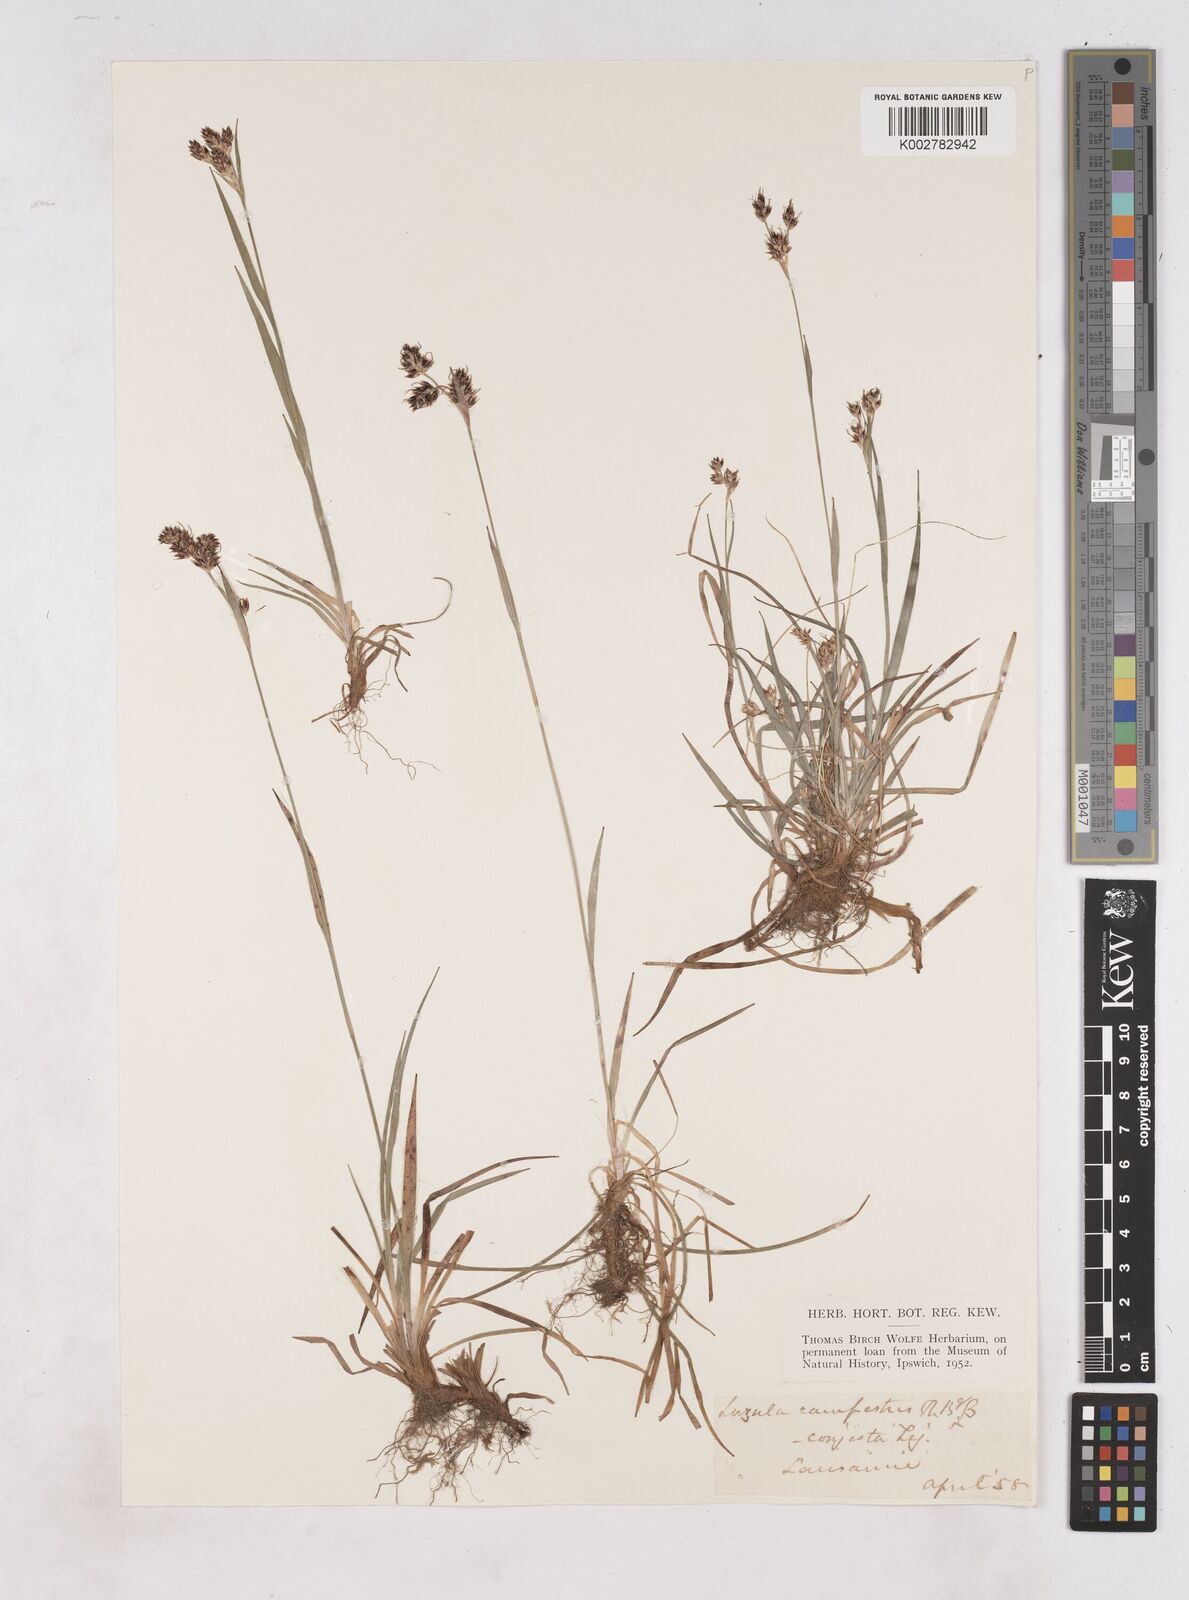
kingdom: Plantae
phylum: Tracheophyta
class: Liliopsida
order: Poales
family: Juncaceae
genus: Luzula
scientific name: Luzula campestris
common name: Field wood-rush
